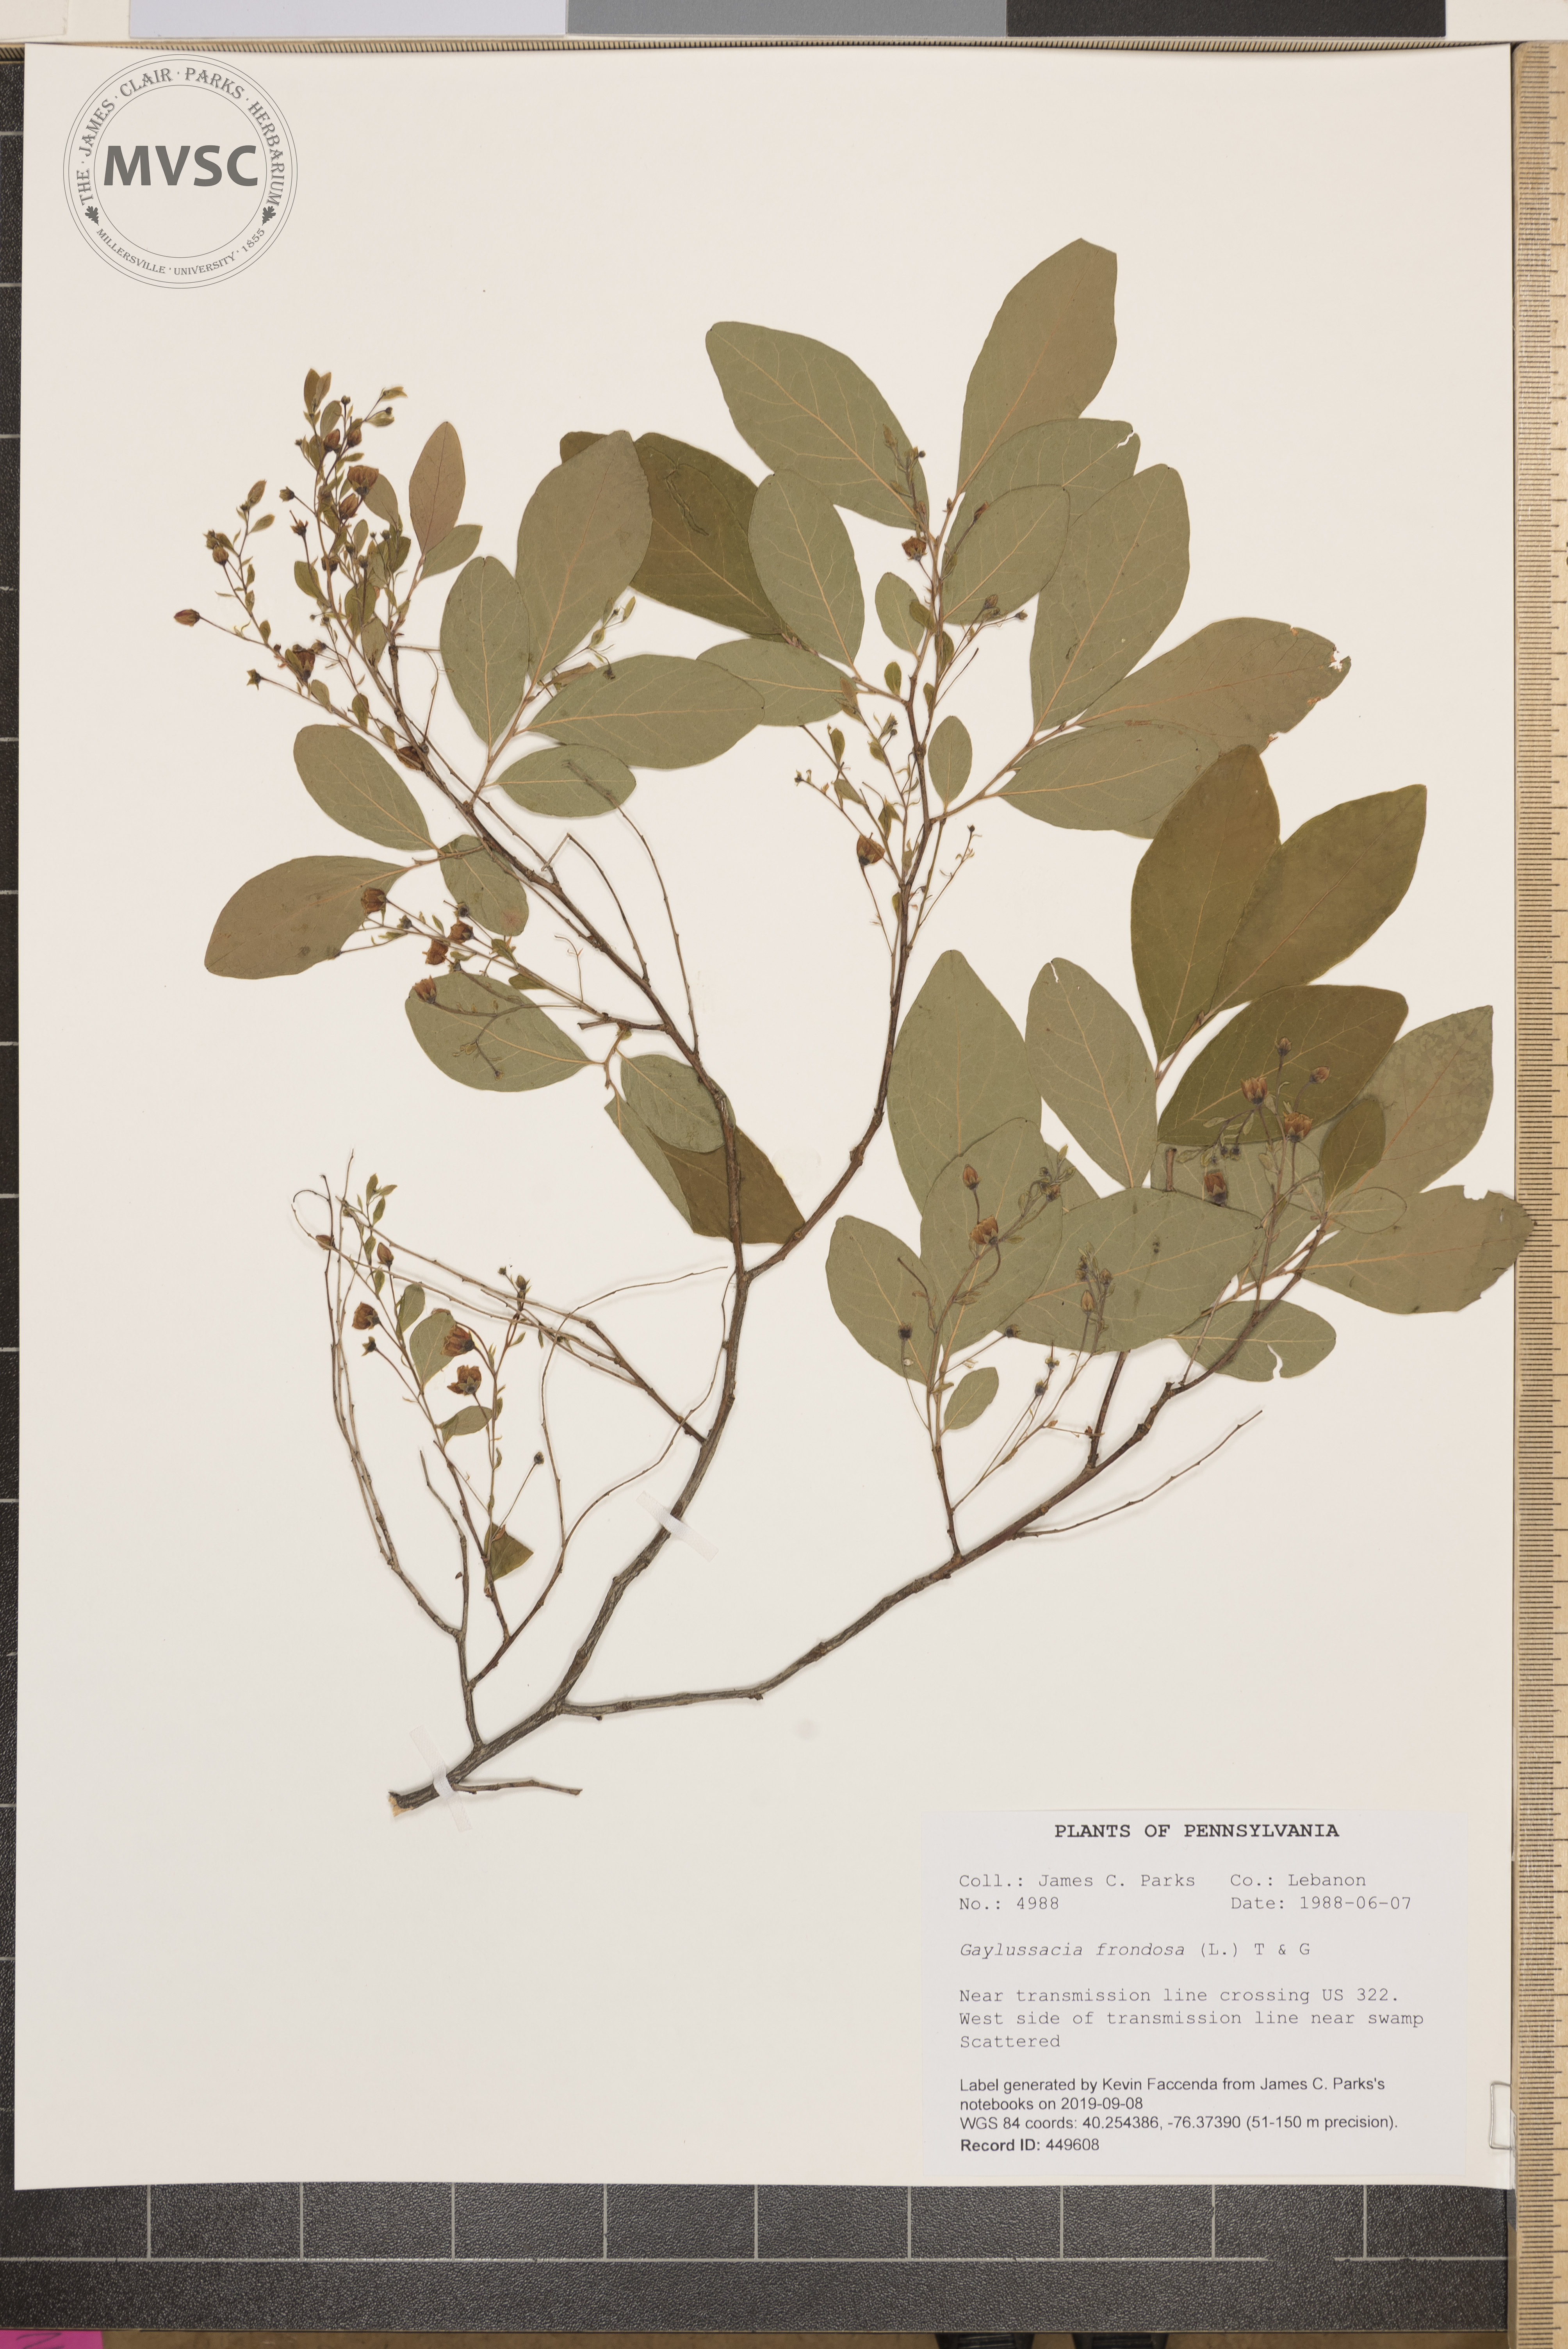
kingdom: Plantae
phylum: Tracheophyta
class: Magnoliopsida
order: Ericales
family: Ericaceae
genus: Gaylussacia
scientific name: Gaylussacia frondosa
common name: Dangleberry
